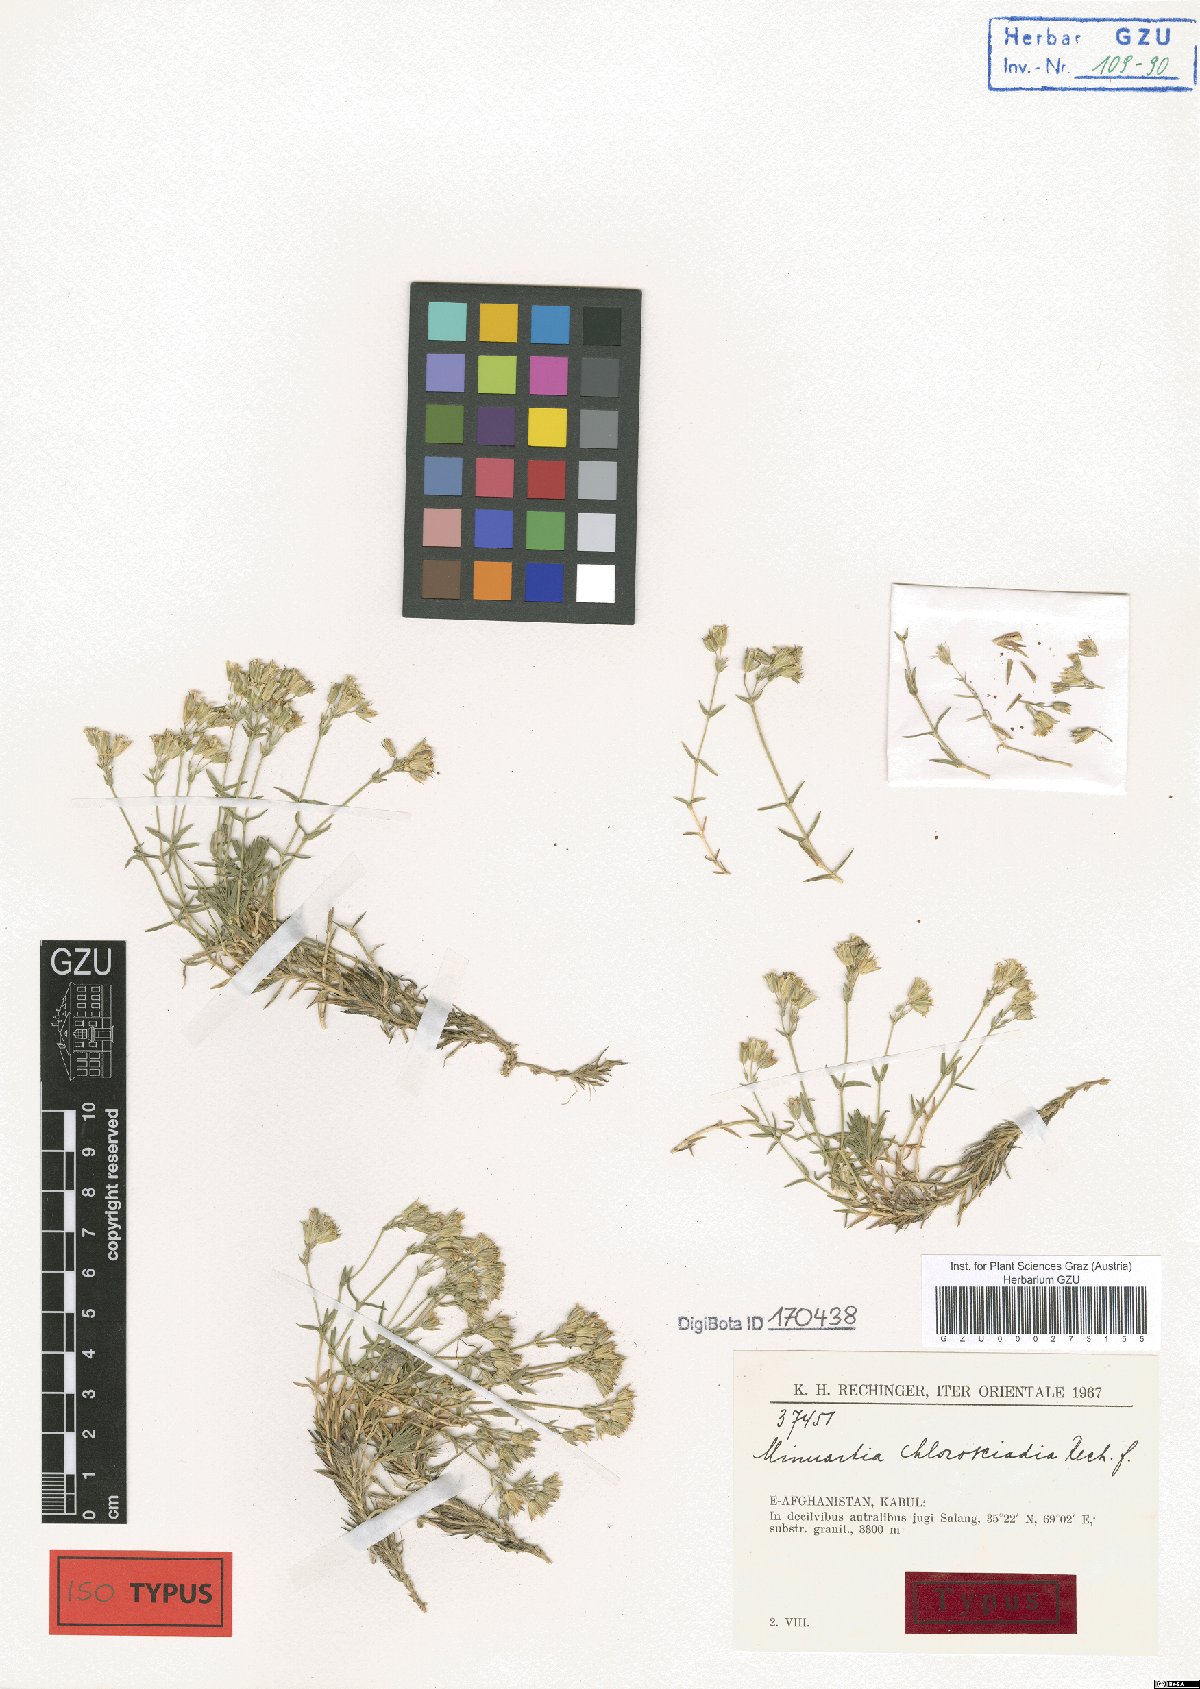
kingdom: Plantae
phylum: Tracheophyta
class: Magnoliopsida
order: Caryophyllales
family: Caryophyllaceae
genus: Sabulina
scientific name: Sabulina chlorosciadia
